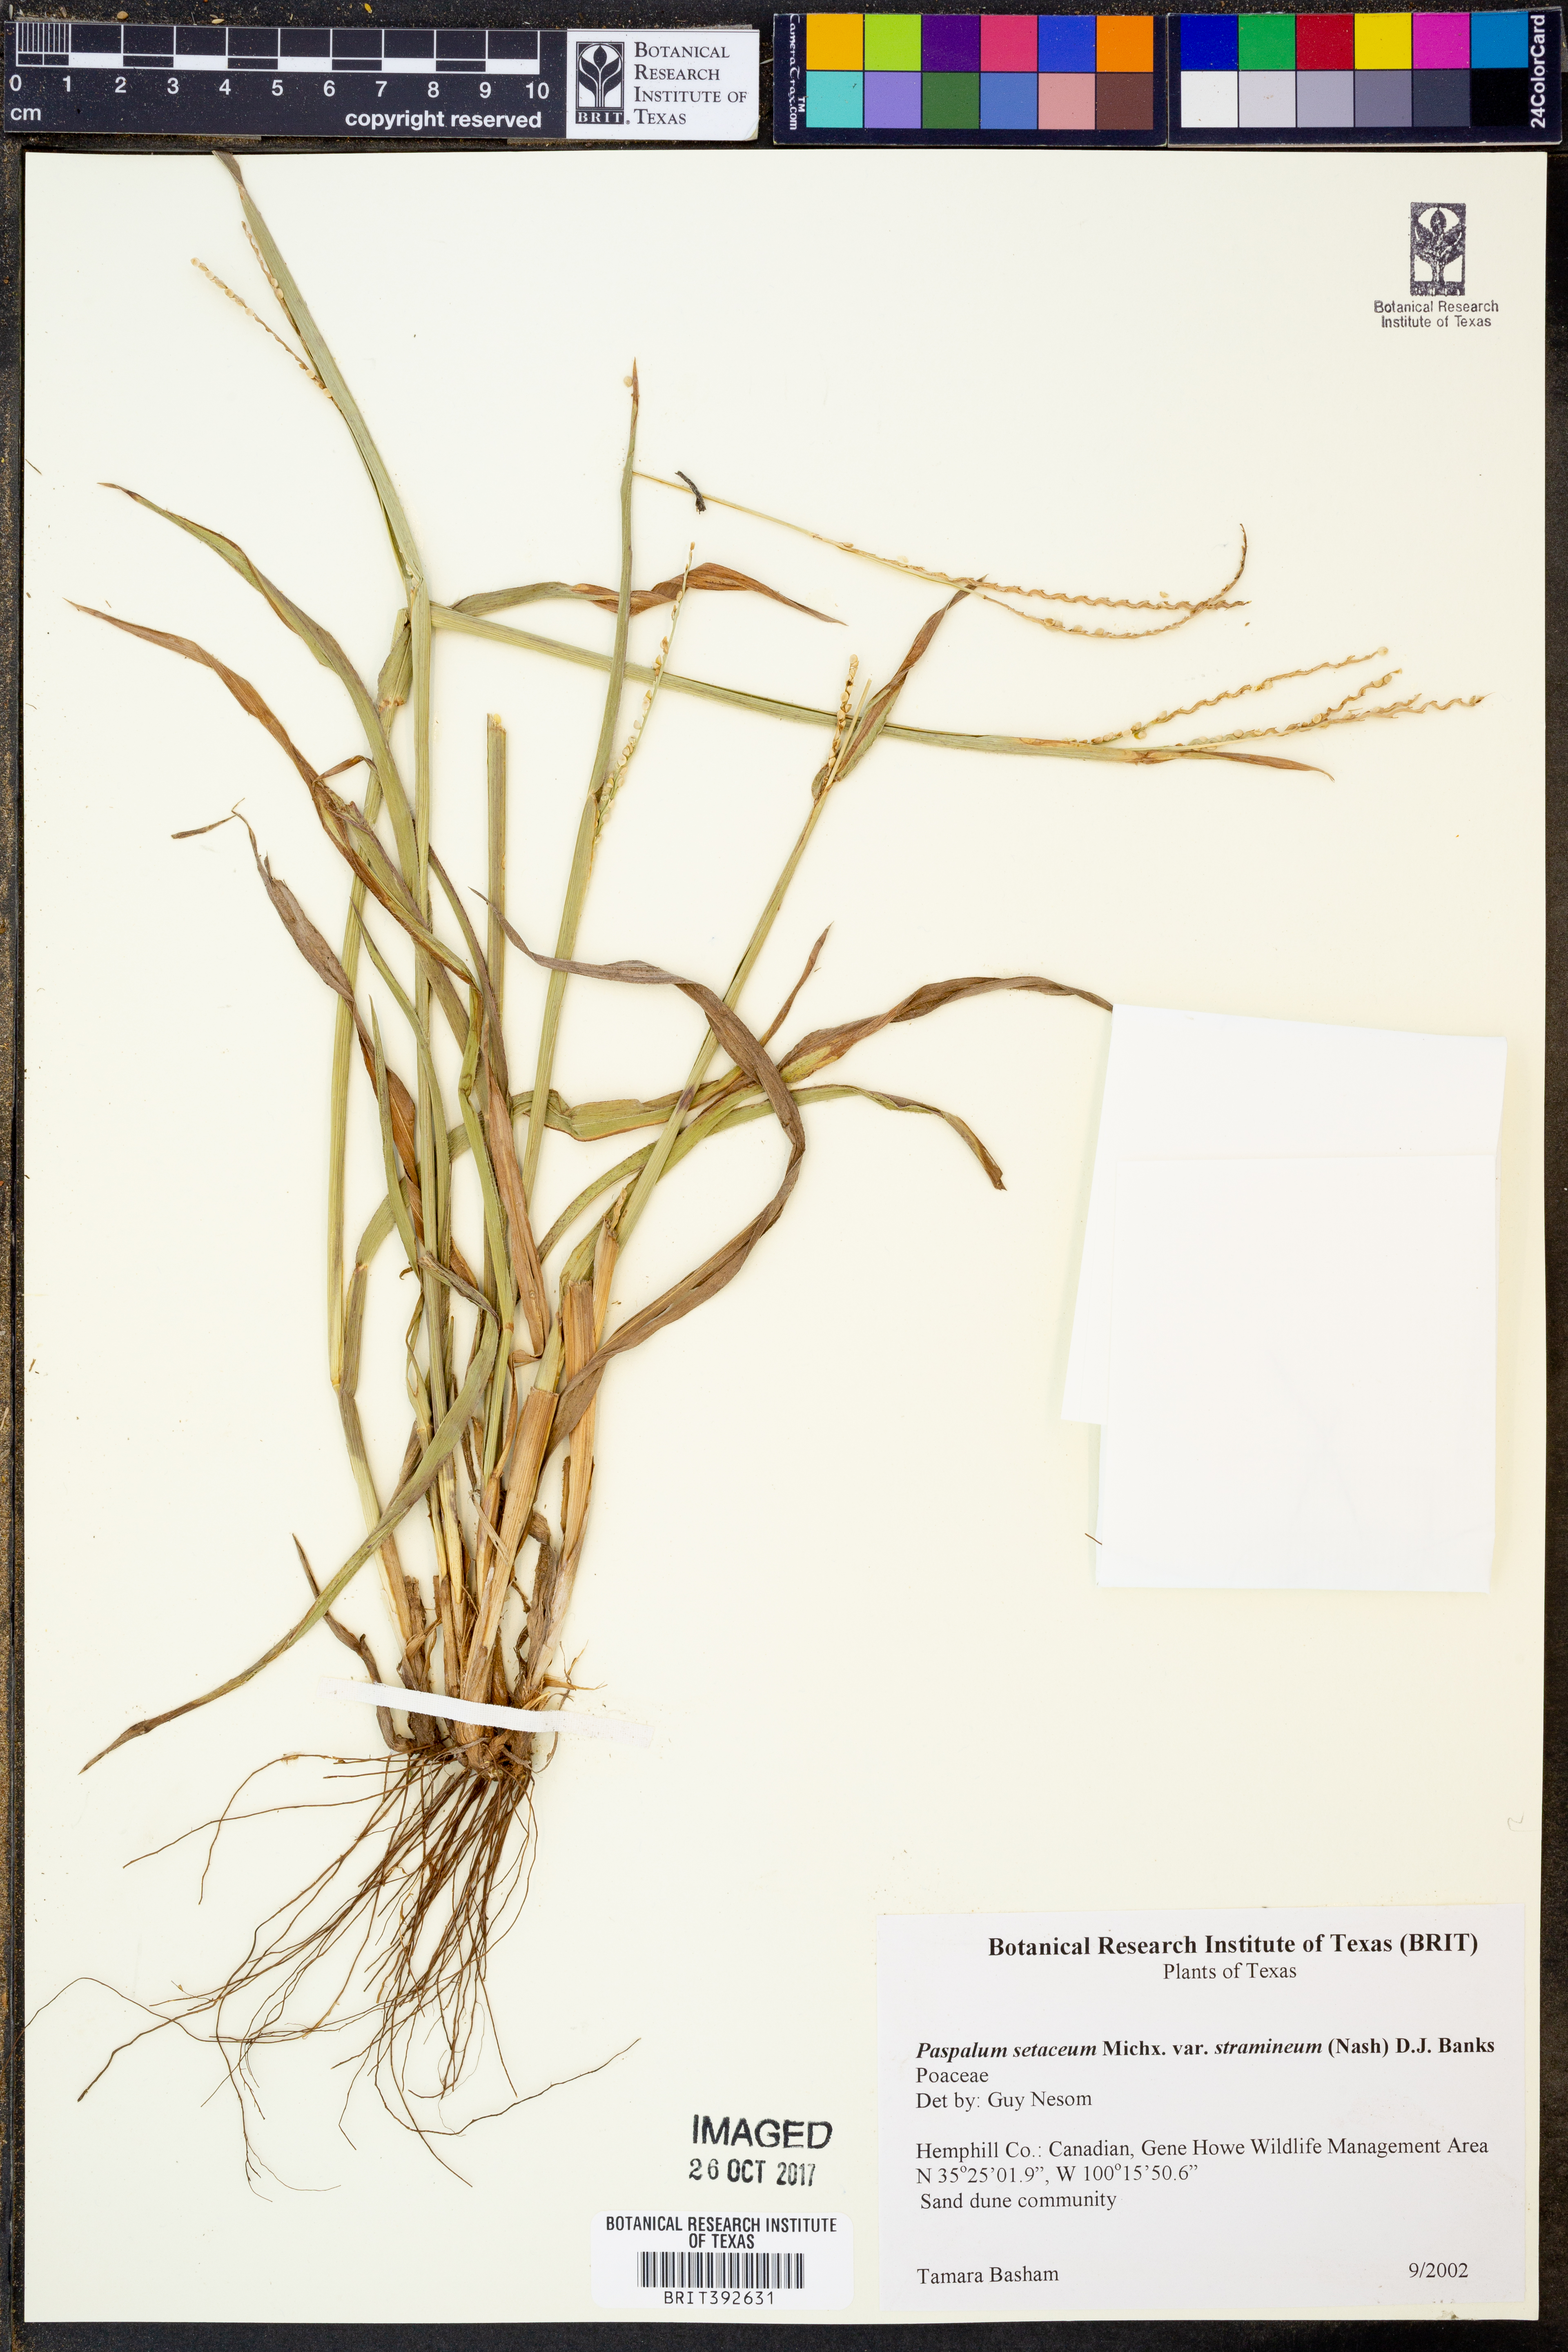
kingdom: Plantae
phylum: Tracheophyta
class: Liliopsida
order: Poales
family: Poaceae
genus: Paspalum
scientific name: Paspalum setaceum
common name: Slender paspalum
